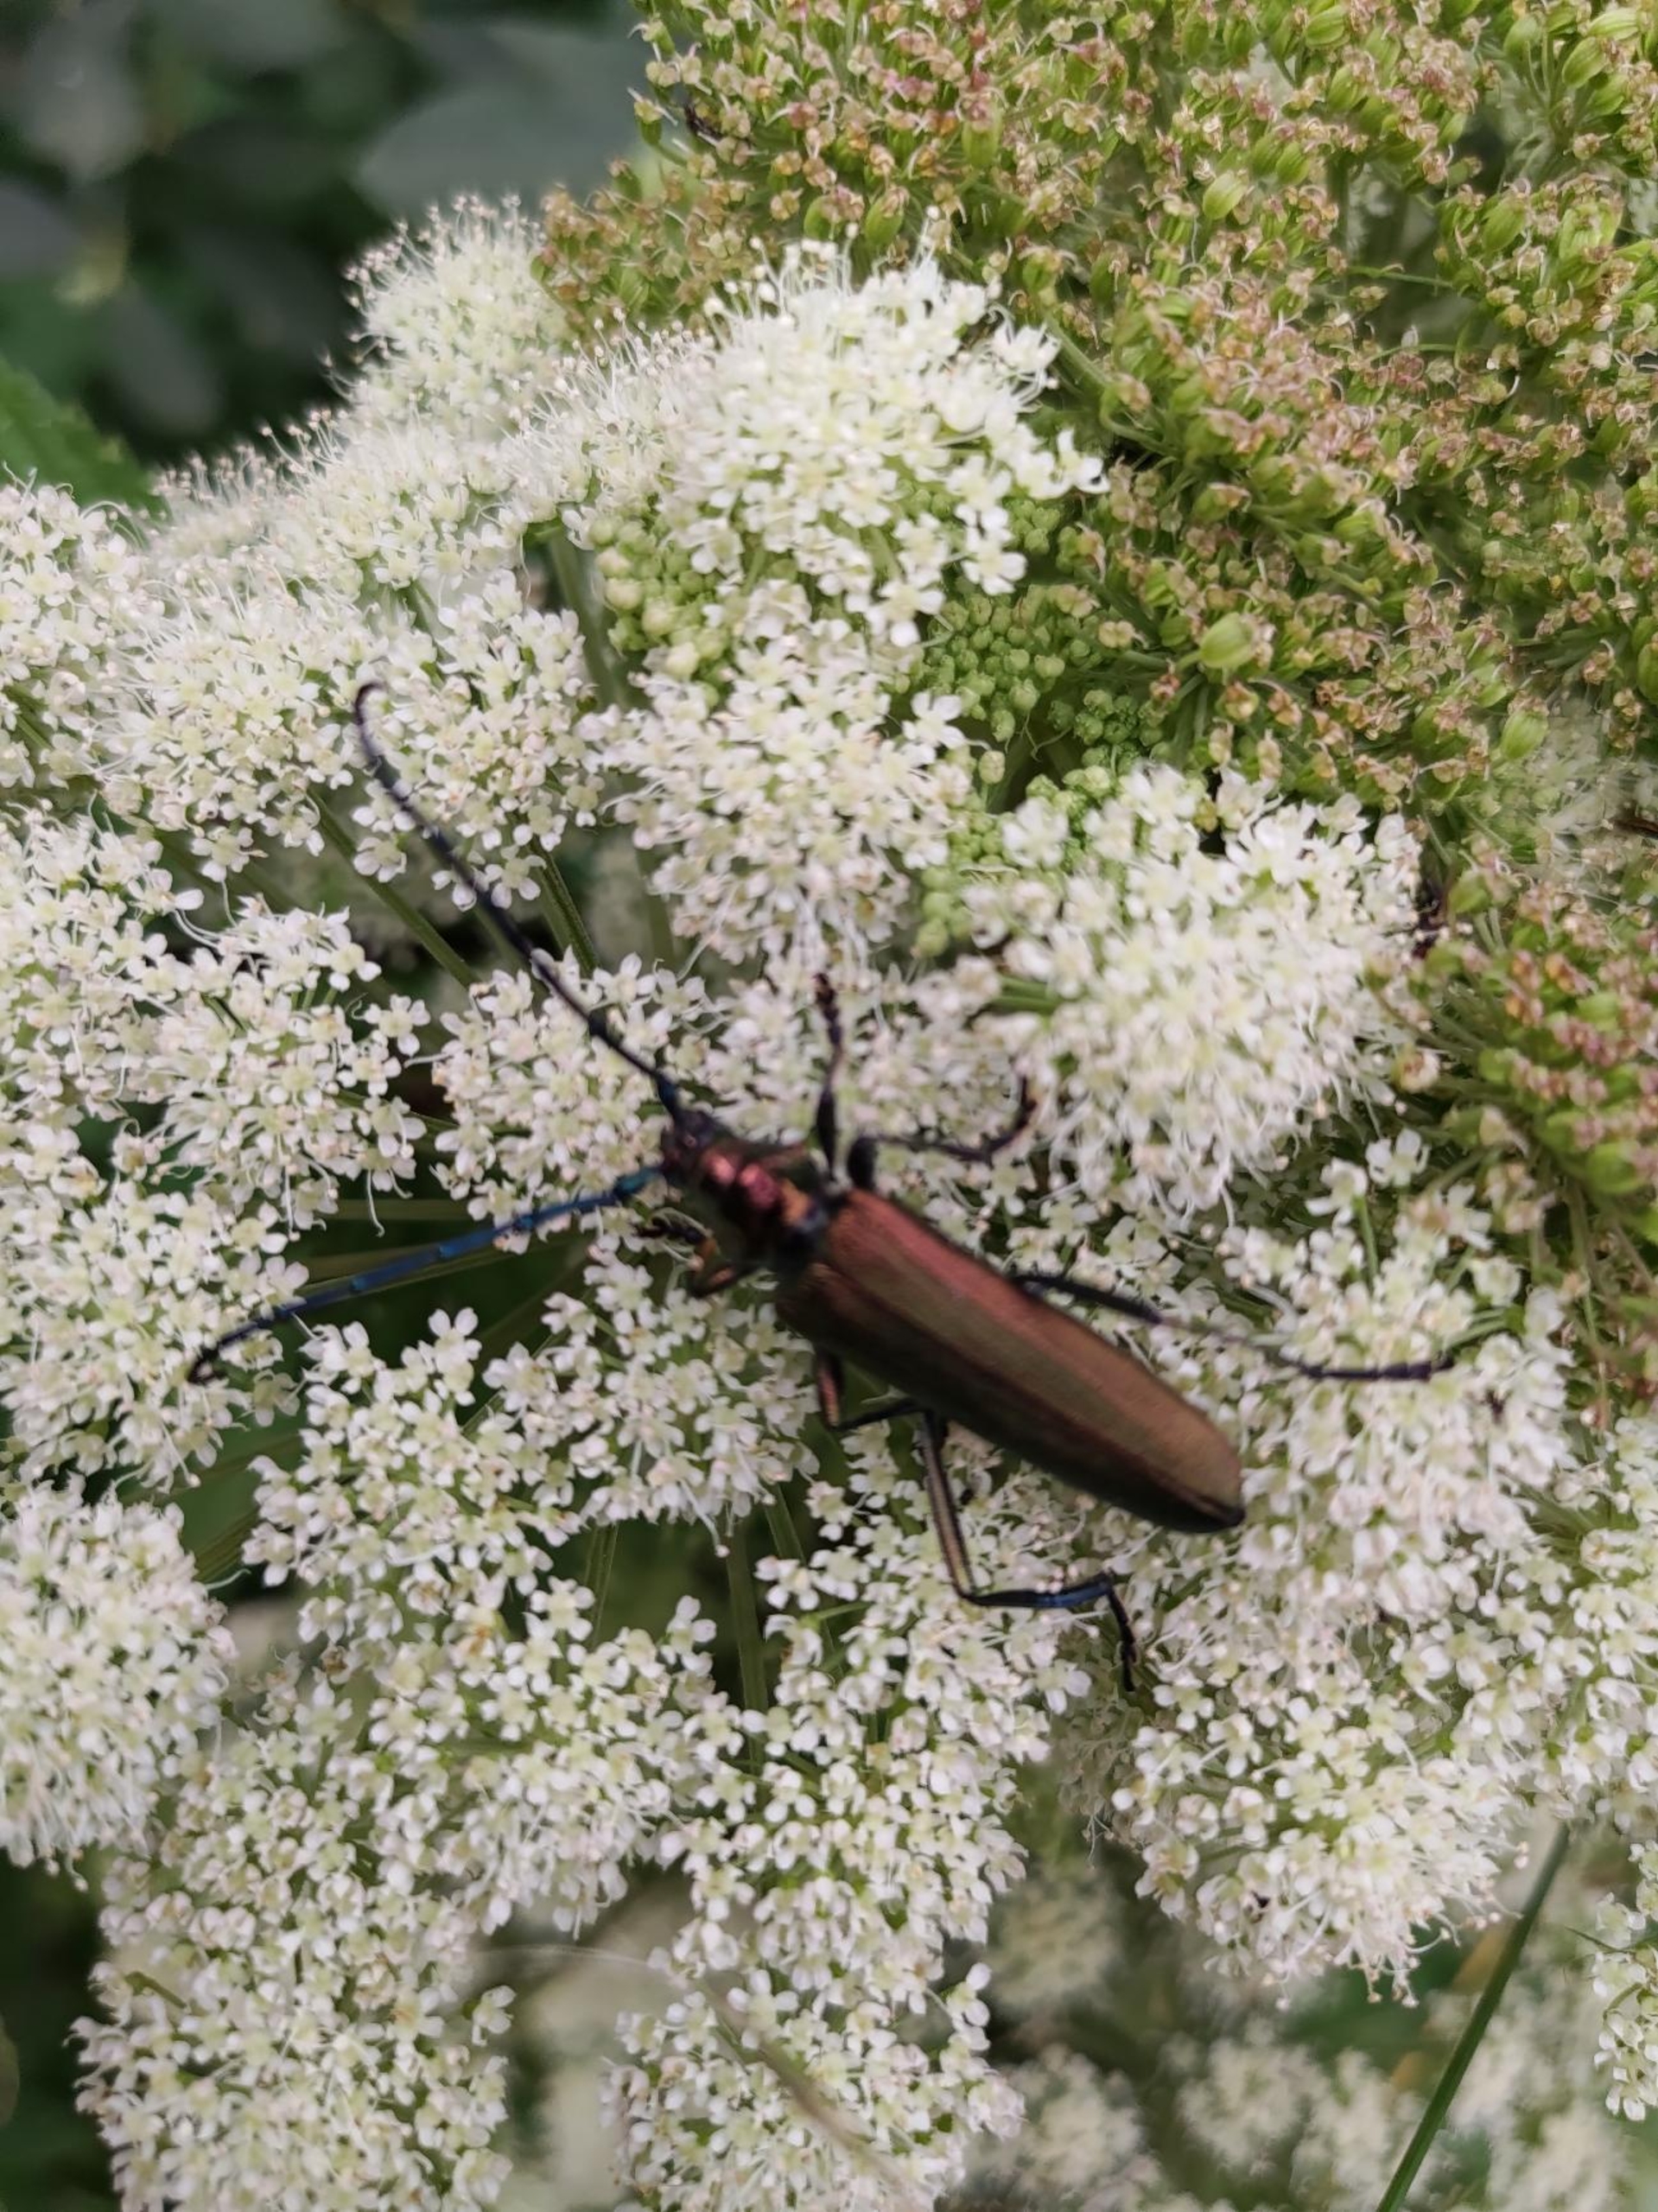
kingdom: Animalia
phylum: Arthropoda
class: Insecta
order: Coleoptera
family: Cerambycidae
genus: Aromia
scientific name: Aromia moschata
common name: Moskusbuk
